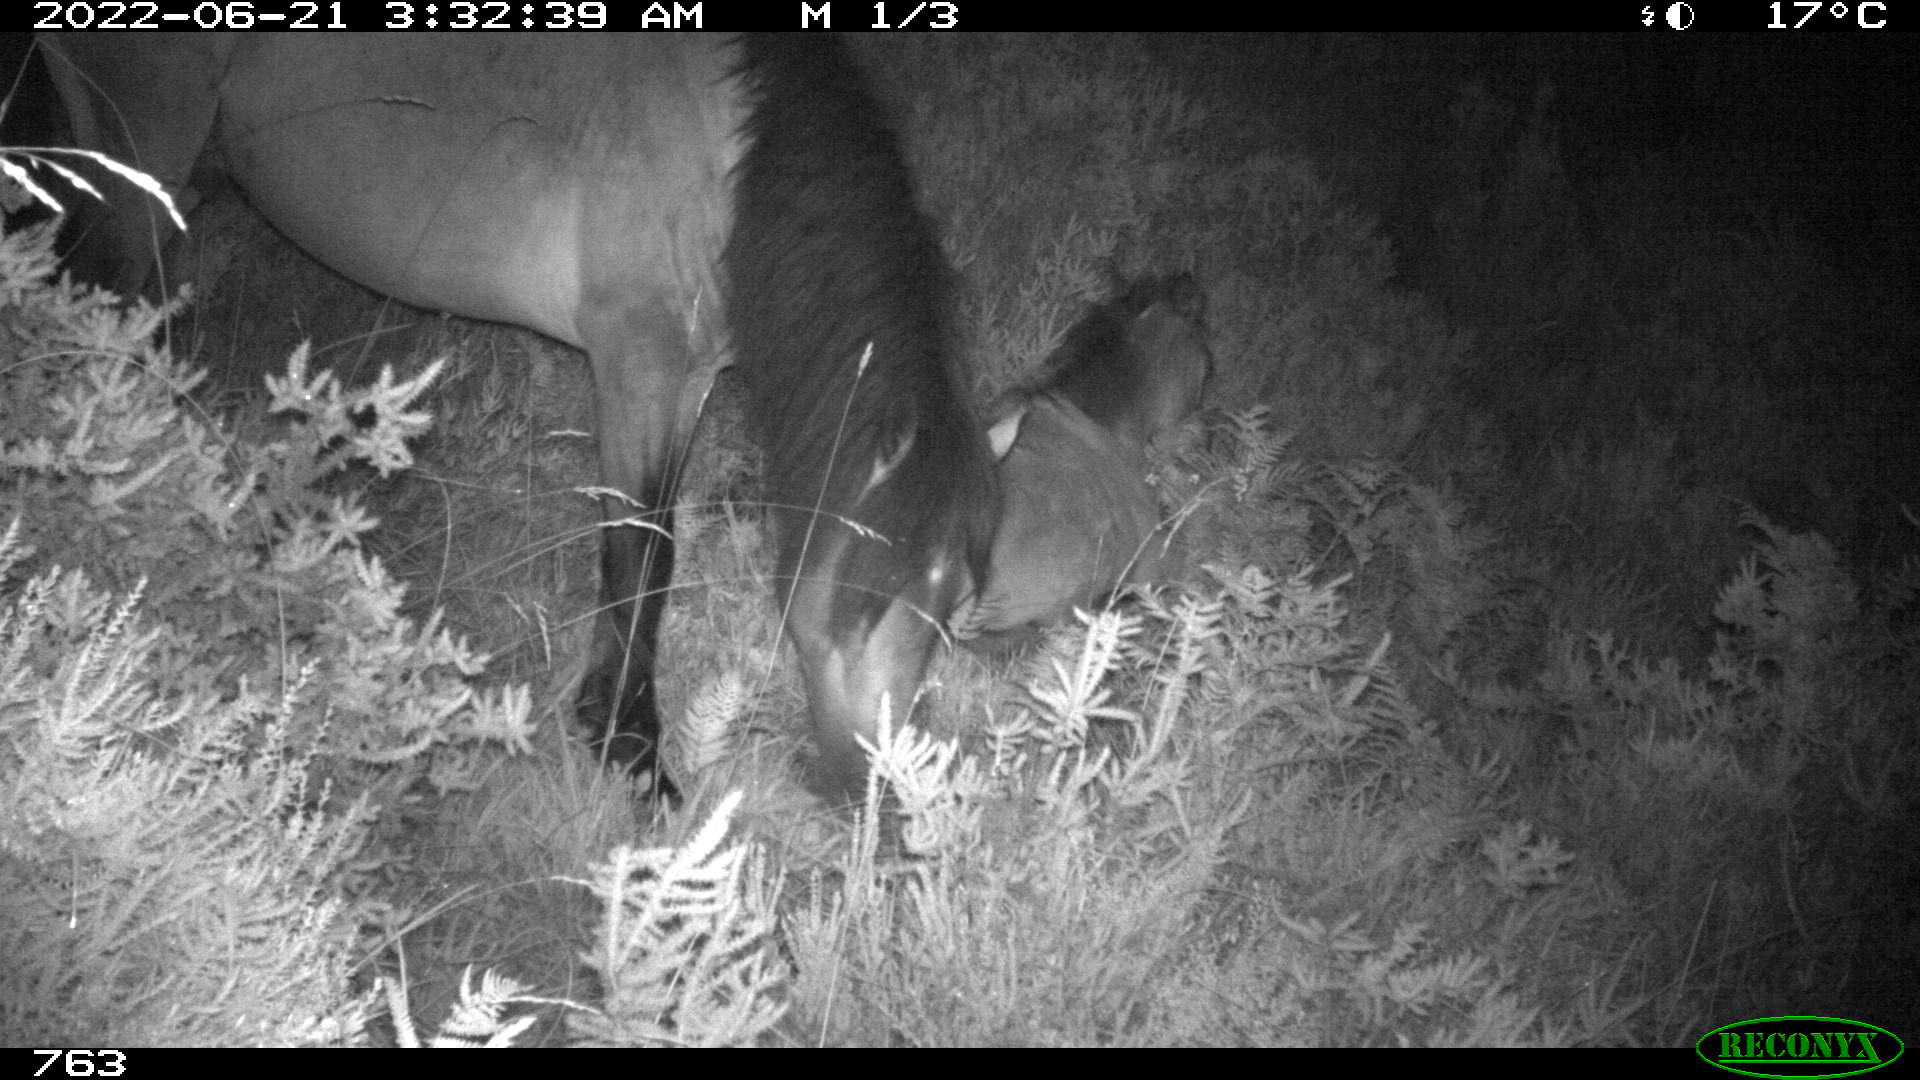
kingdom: Animalia
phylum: Chordata
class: Mammalia
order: Perissodactyla
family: Equidae
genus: Equus
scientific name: Equus caballus
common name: Horse
